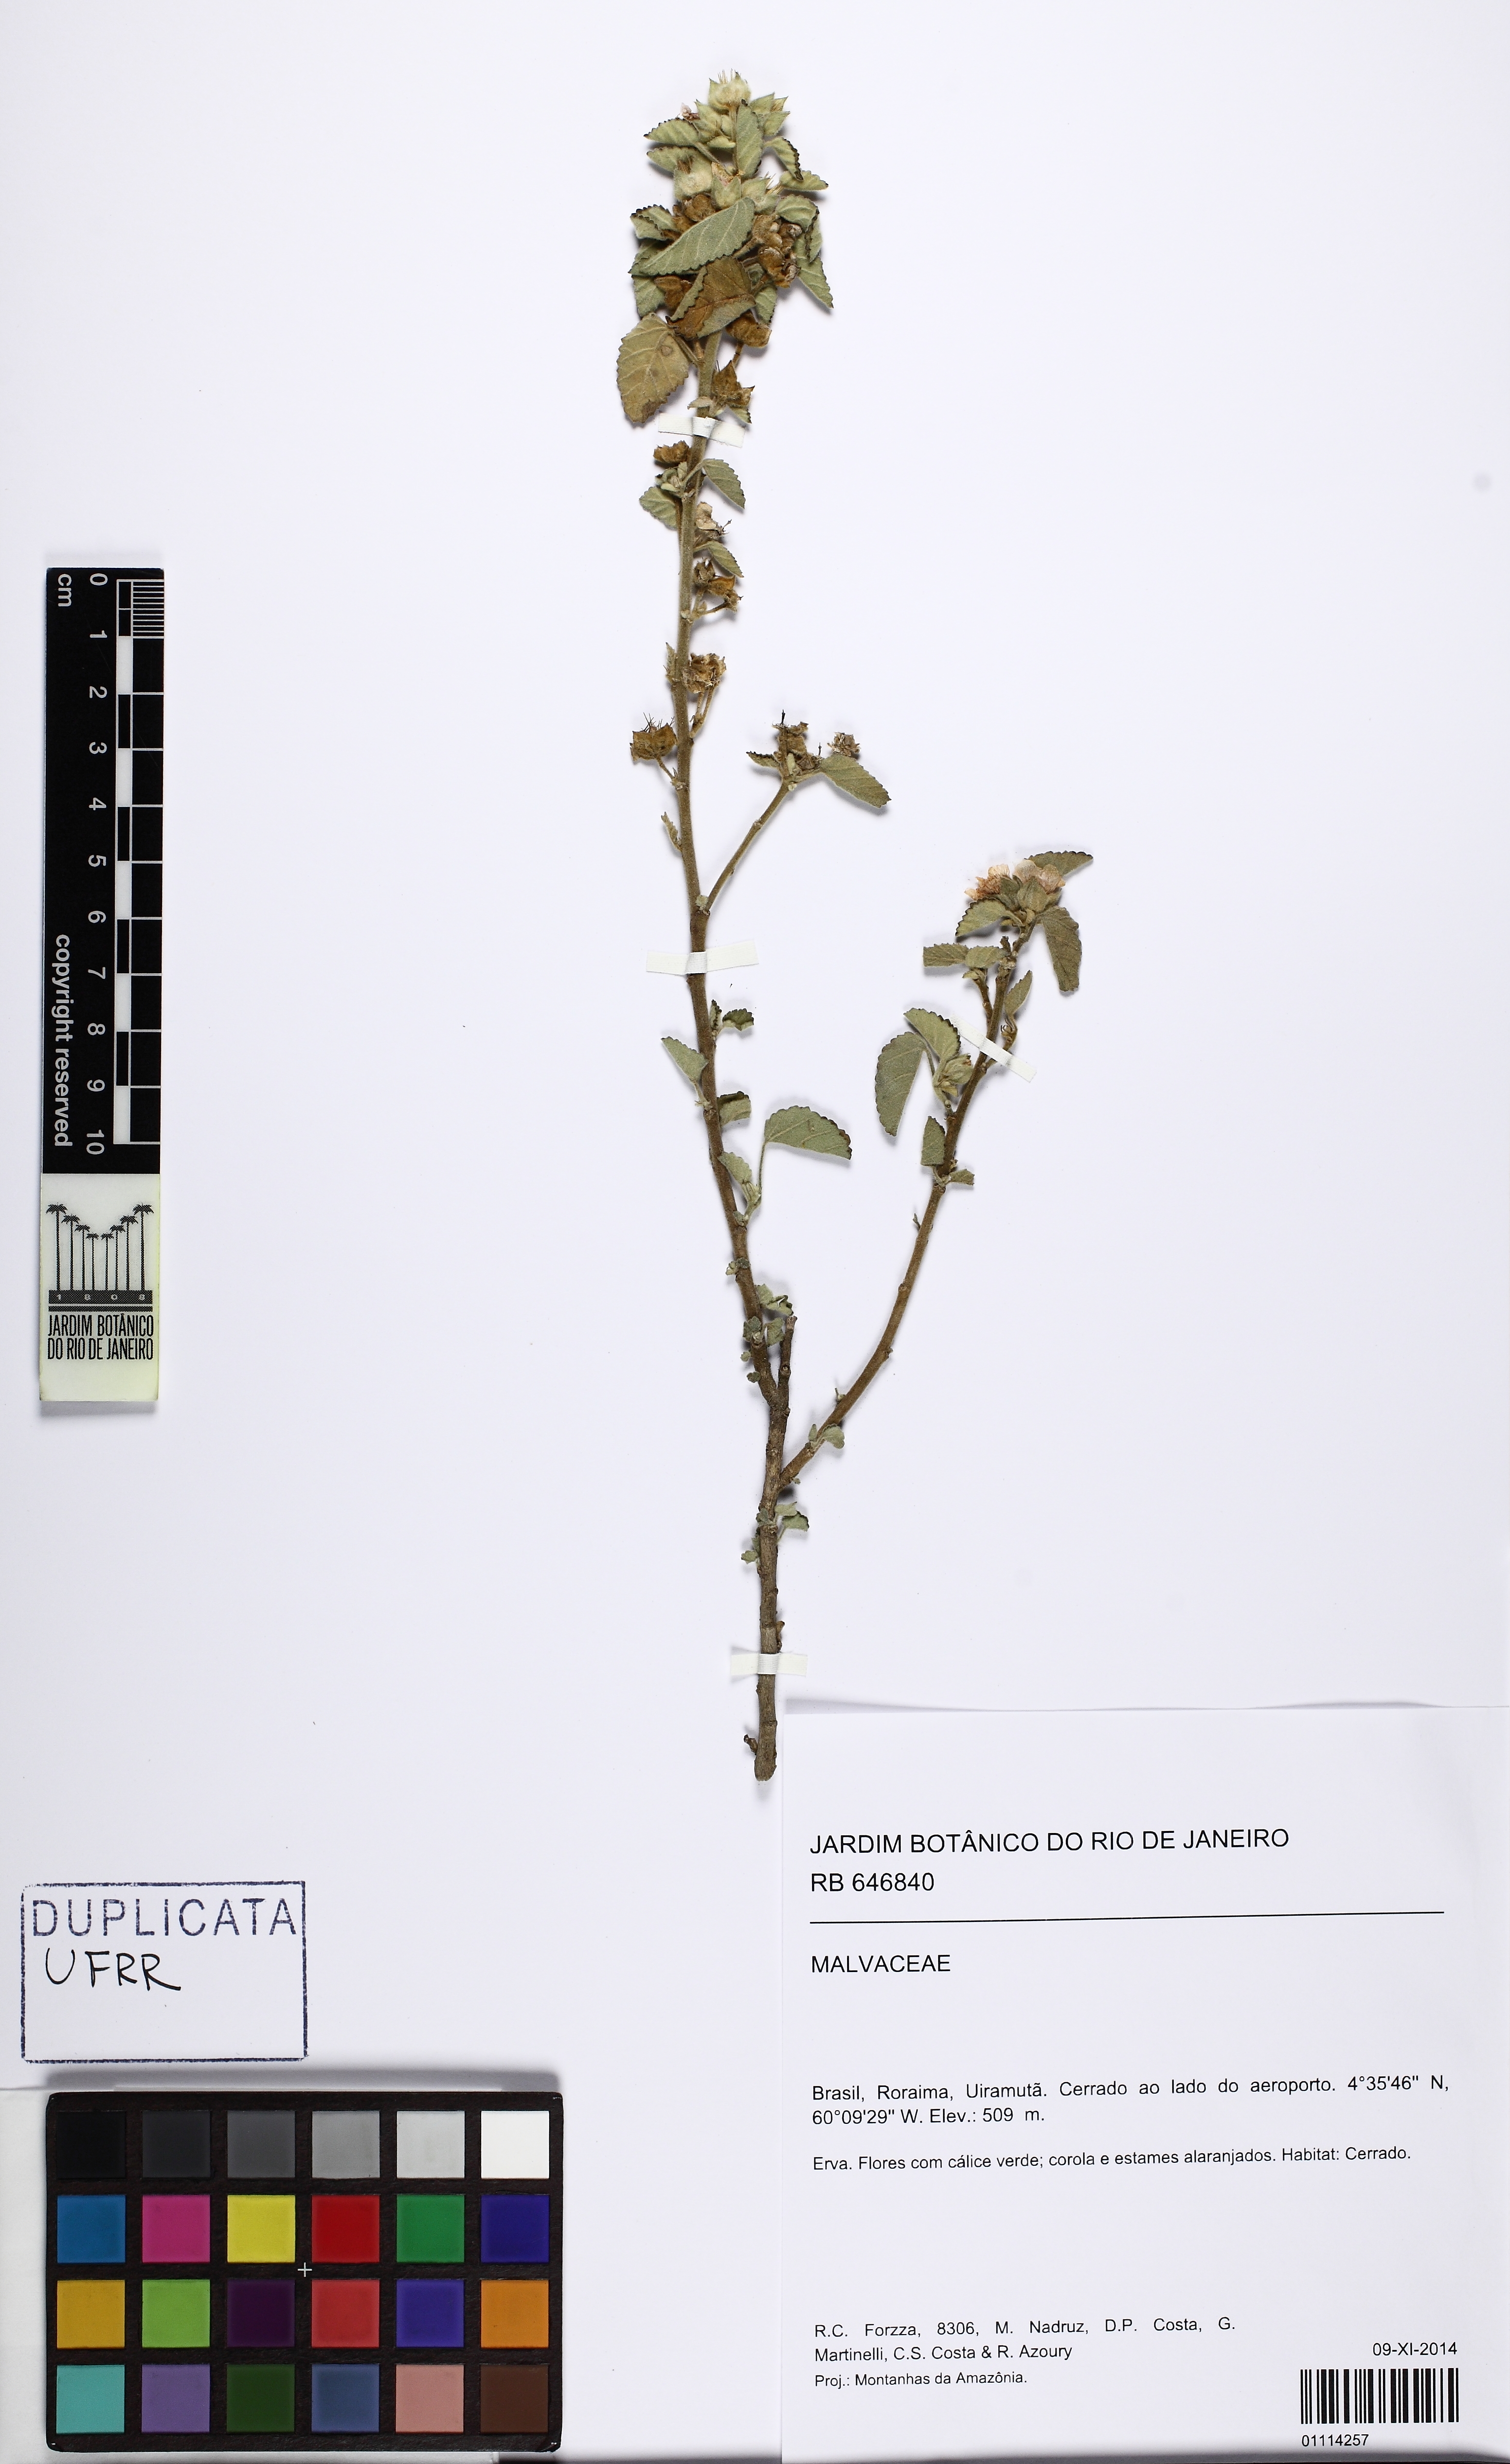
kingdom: Plantae
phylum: Tracheophyta
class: Magnoliopsida
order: Malvales
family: Malvaceae
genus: Sida
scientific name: Sida cordifolia
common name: Ilima
